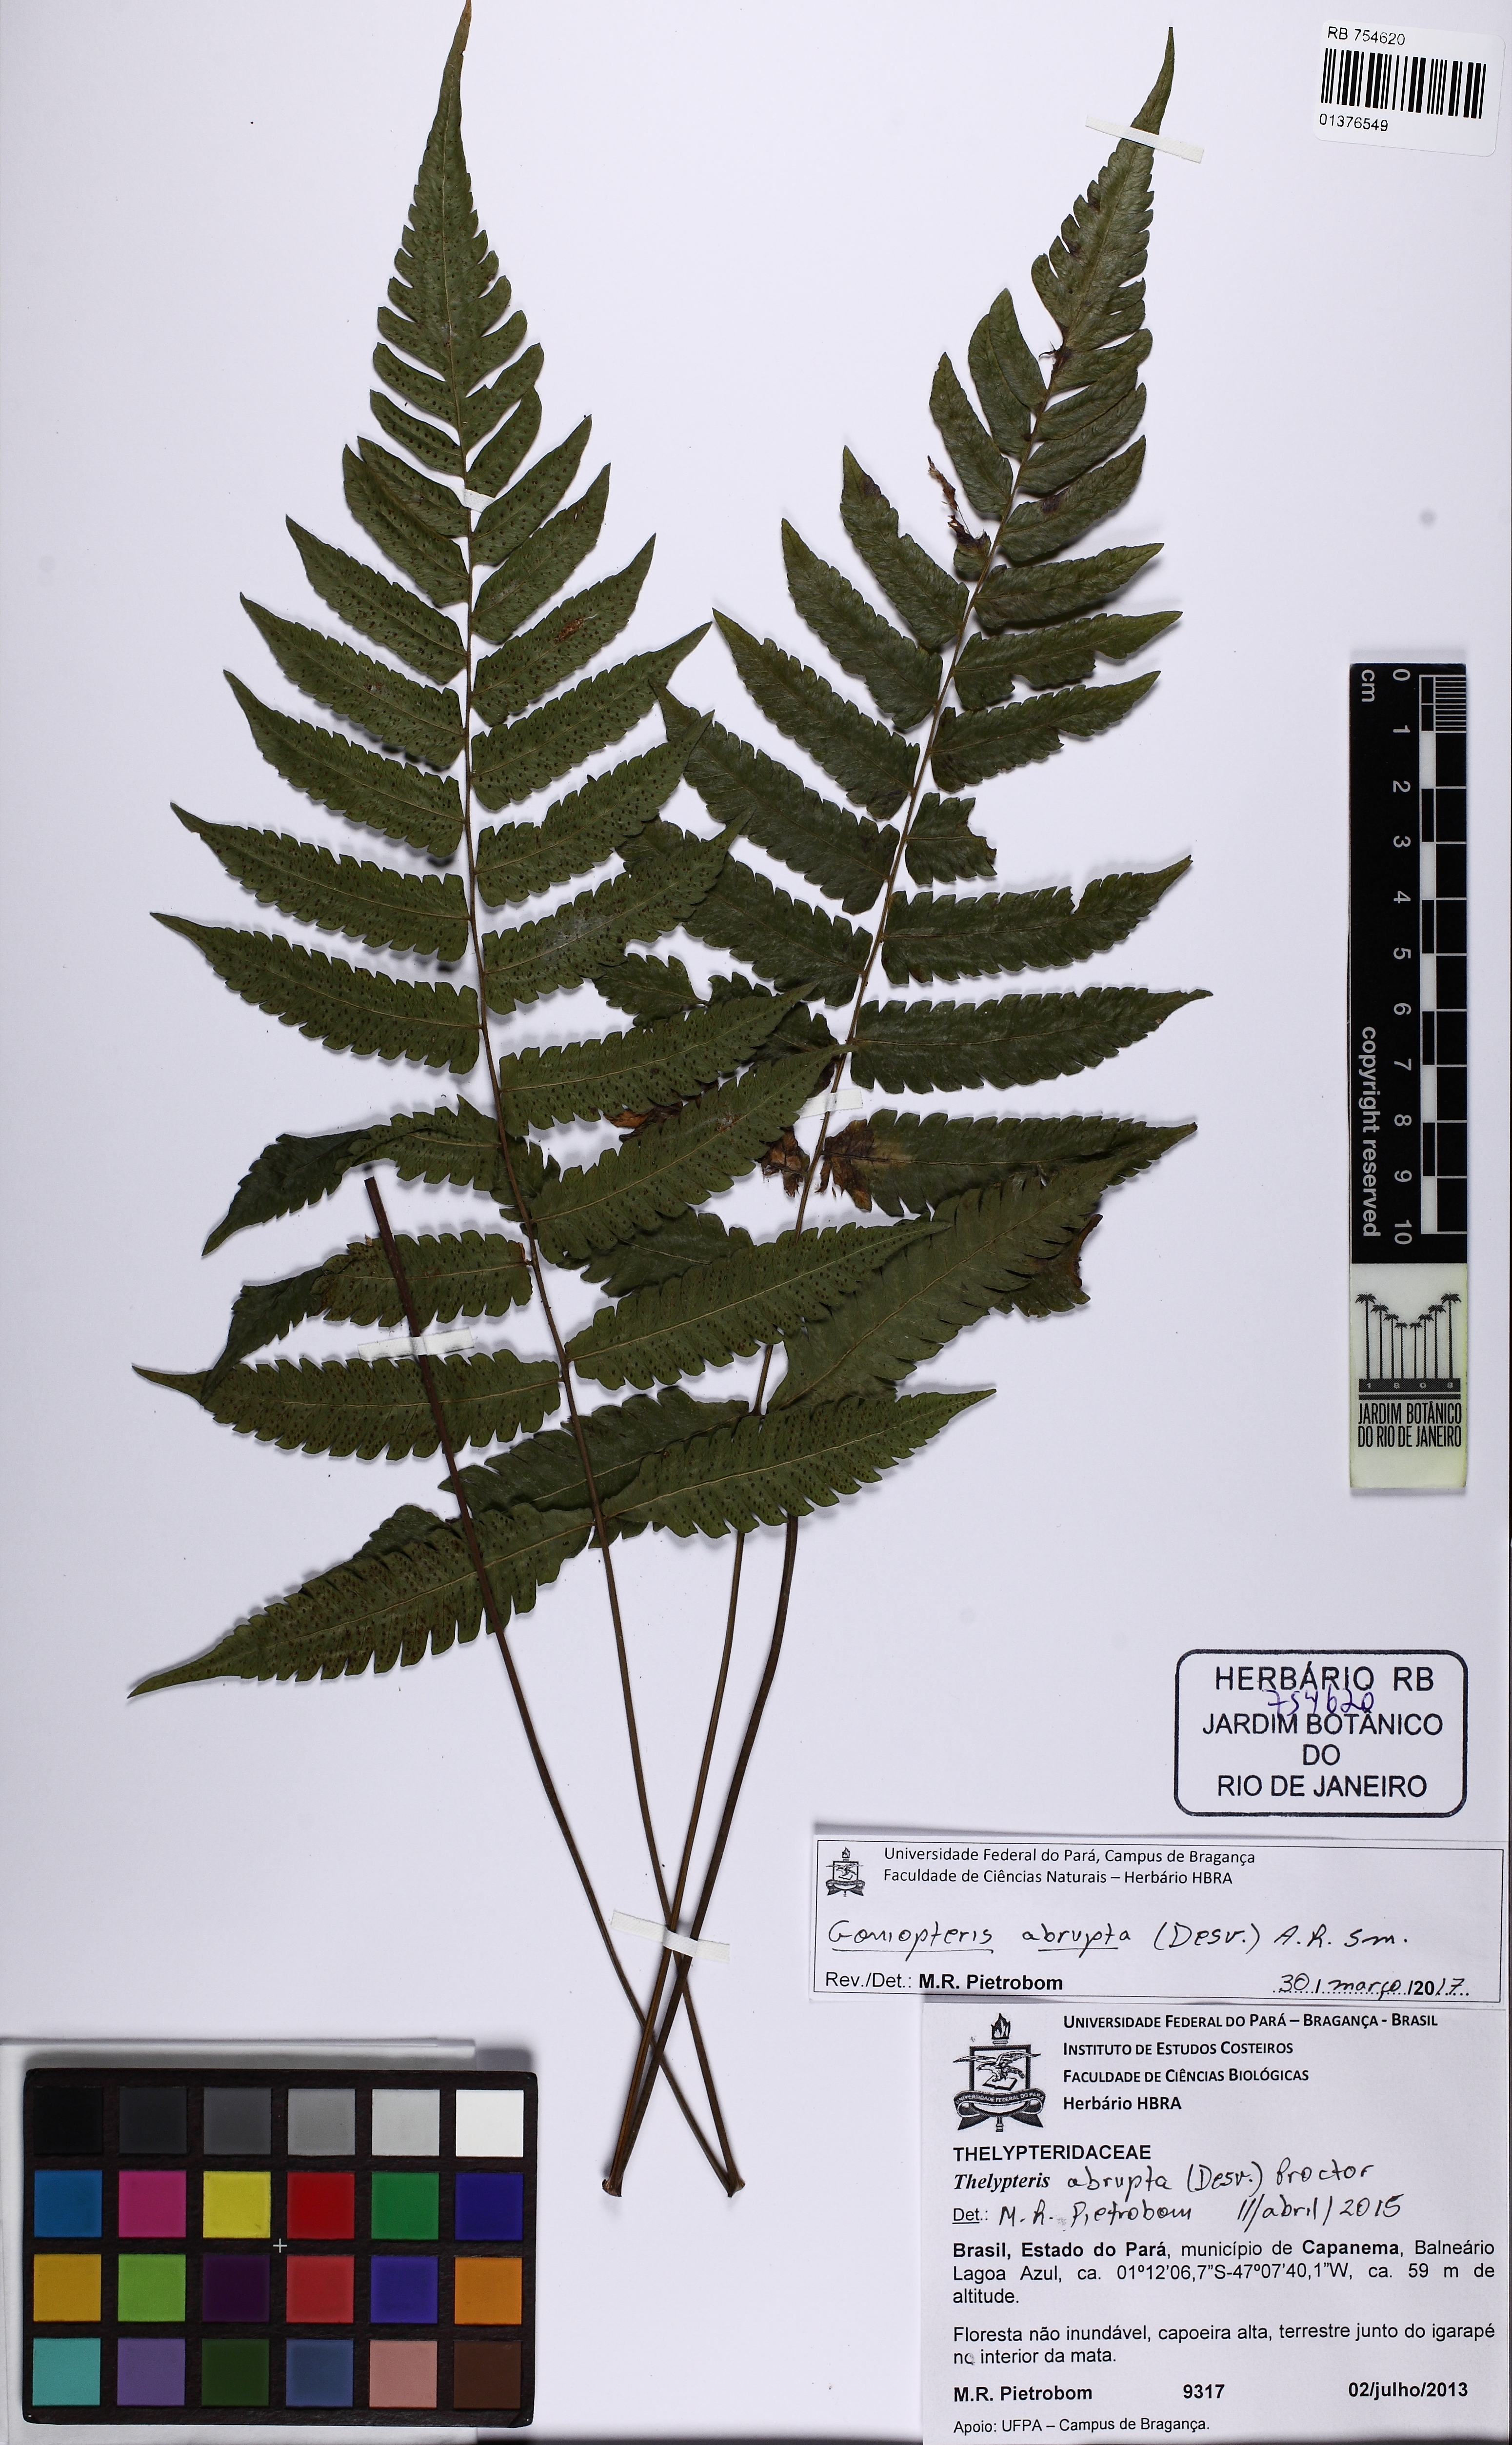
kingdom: Plantae
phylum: Tracheophyta
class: Polypodiopsida
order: Polypodiales
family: Thelypteridaceae
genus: Goniopteris
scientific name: Goniopteris abrupta
